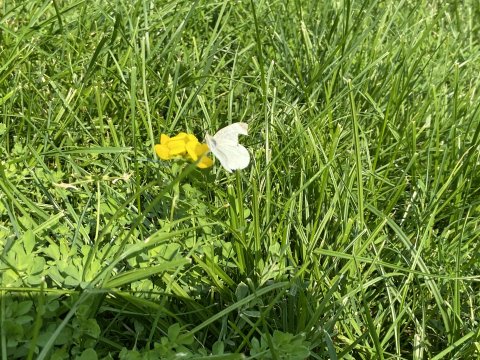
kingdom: Animalia
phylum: Arthropoda
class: Insecta
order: Lepidoptera
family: Pieridae
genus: Pieris
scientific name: Pieris rapae
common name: Cabbage White
